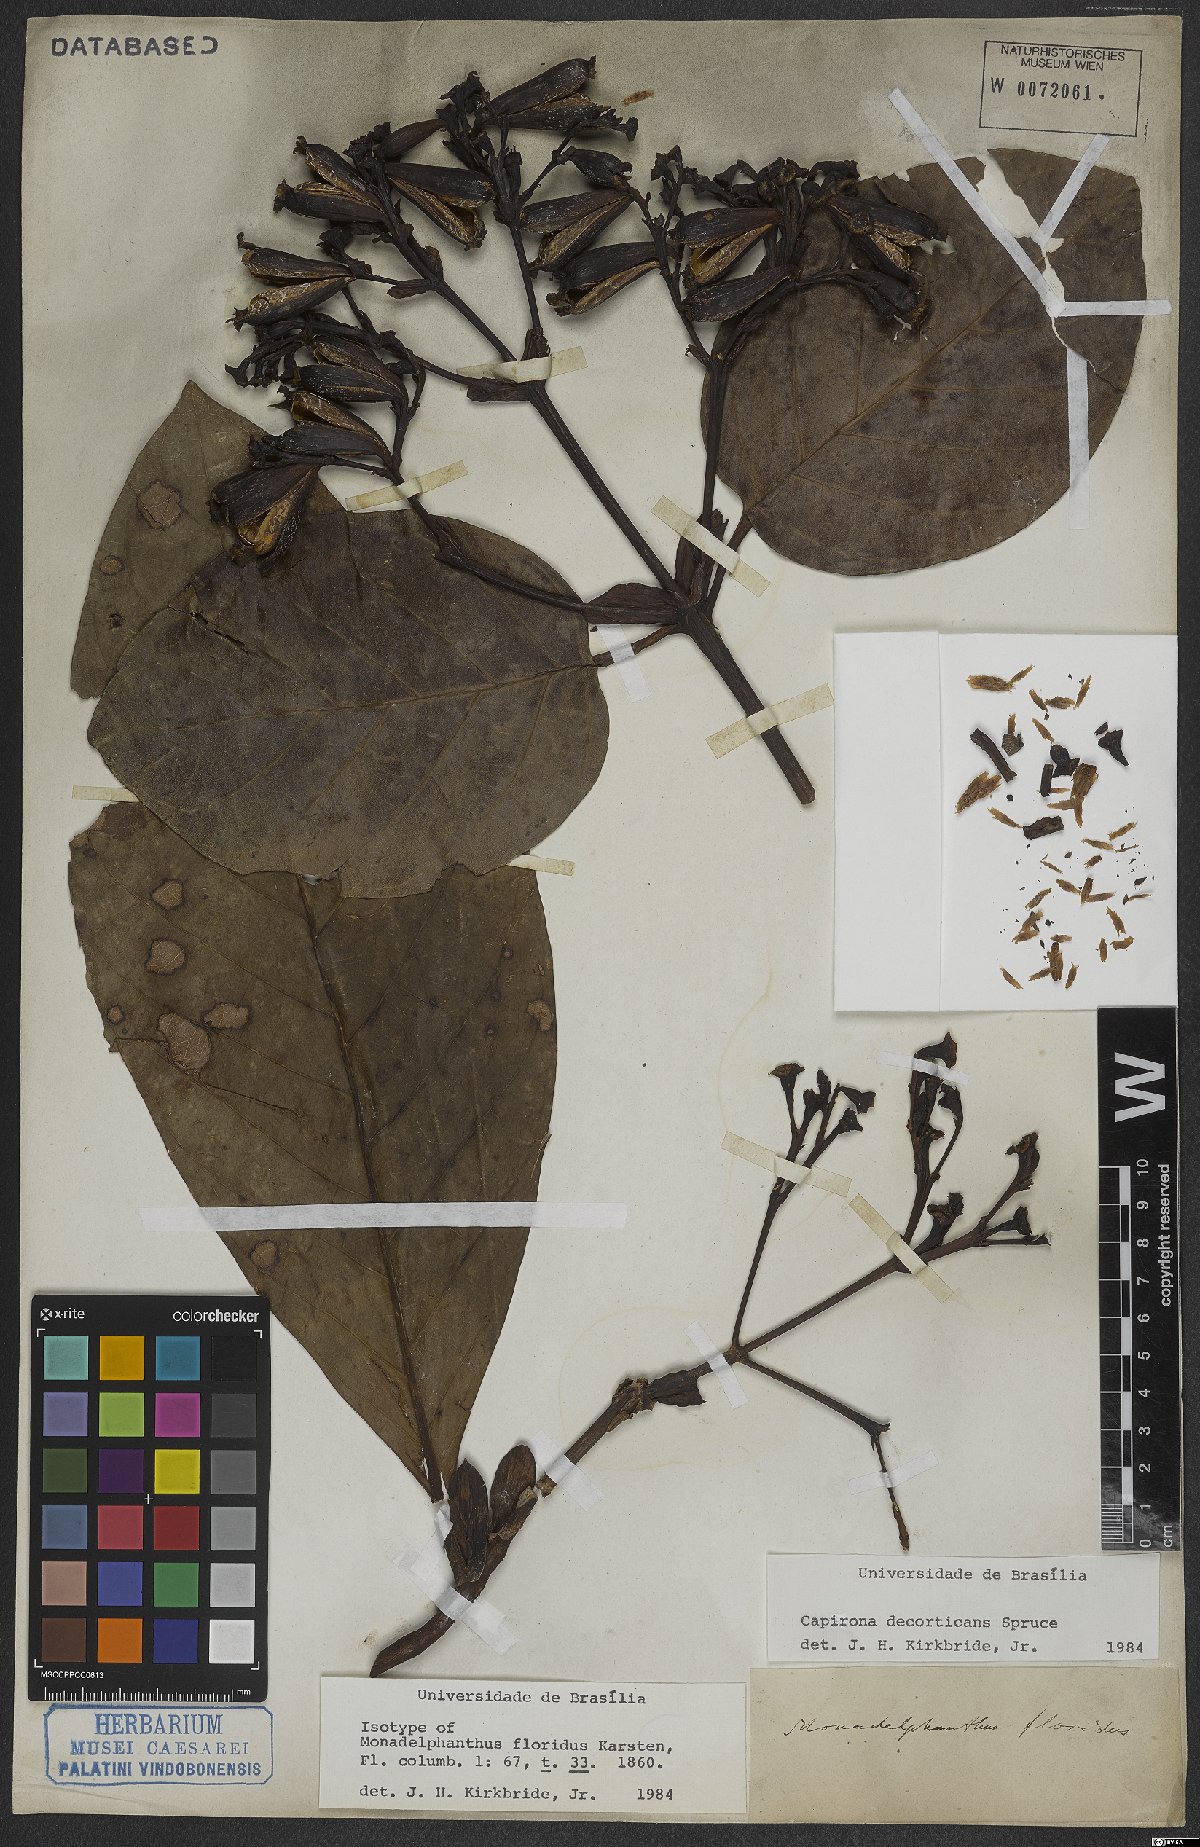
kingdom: Plantae
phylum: Tracheophyta
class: Magnoliopsida
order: Gentianales
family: Rubiaceae
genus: Capirona
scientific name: Capirona macrophylla
